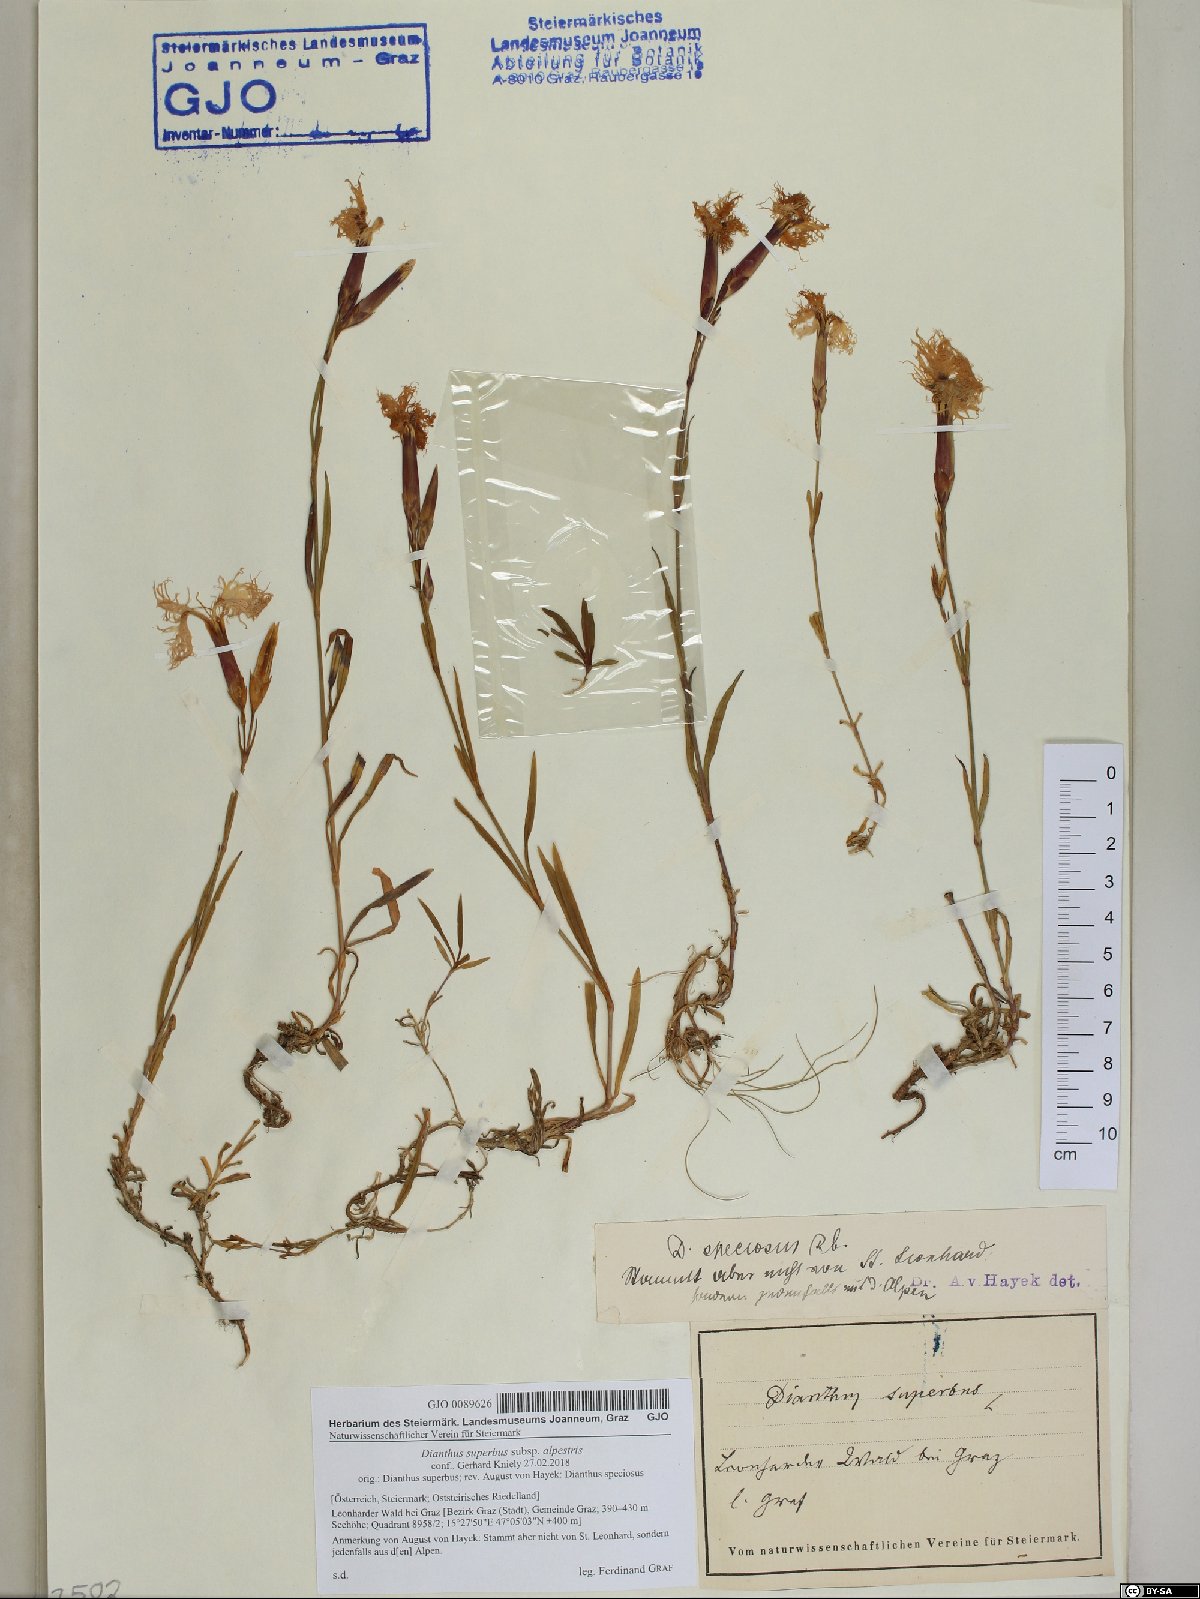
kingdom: Plantae
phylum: Tracheophyta
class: Magnoliopsida
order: Caryophyllales
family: Caryophyllaceae
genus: Dianthus
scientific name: Dianthus superbus
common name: Fringed pink
